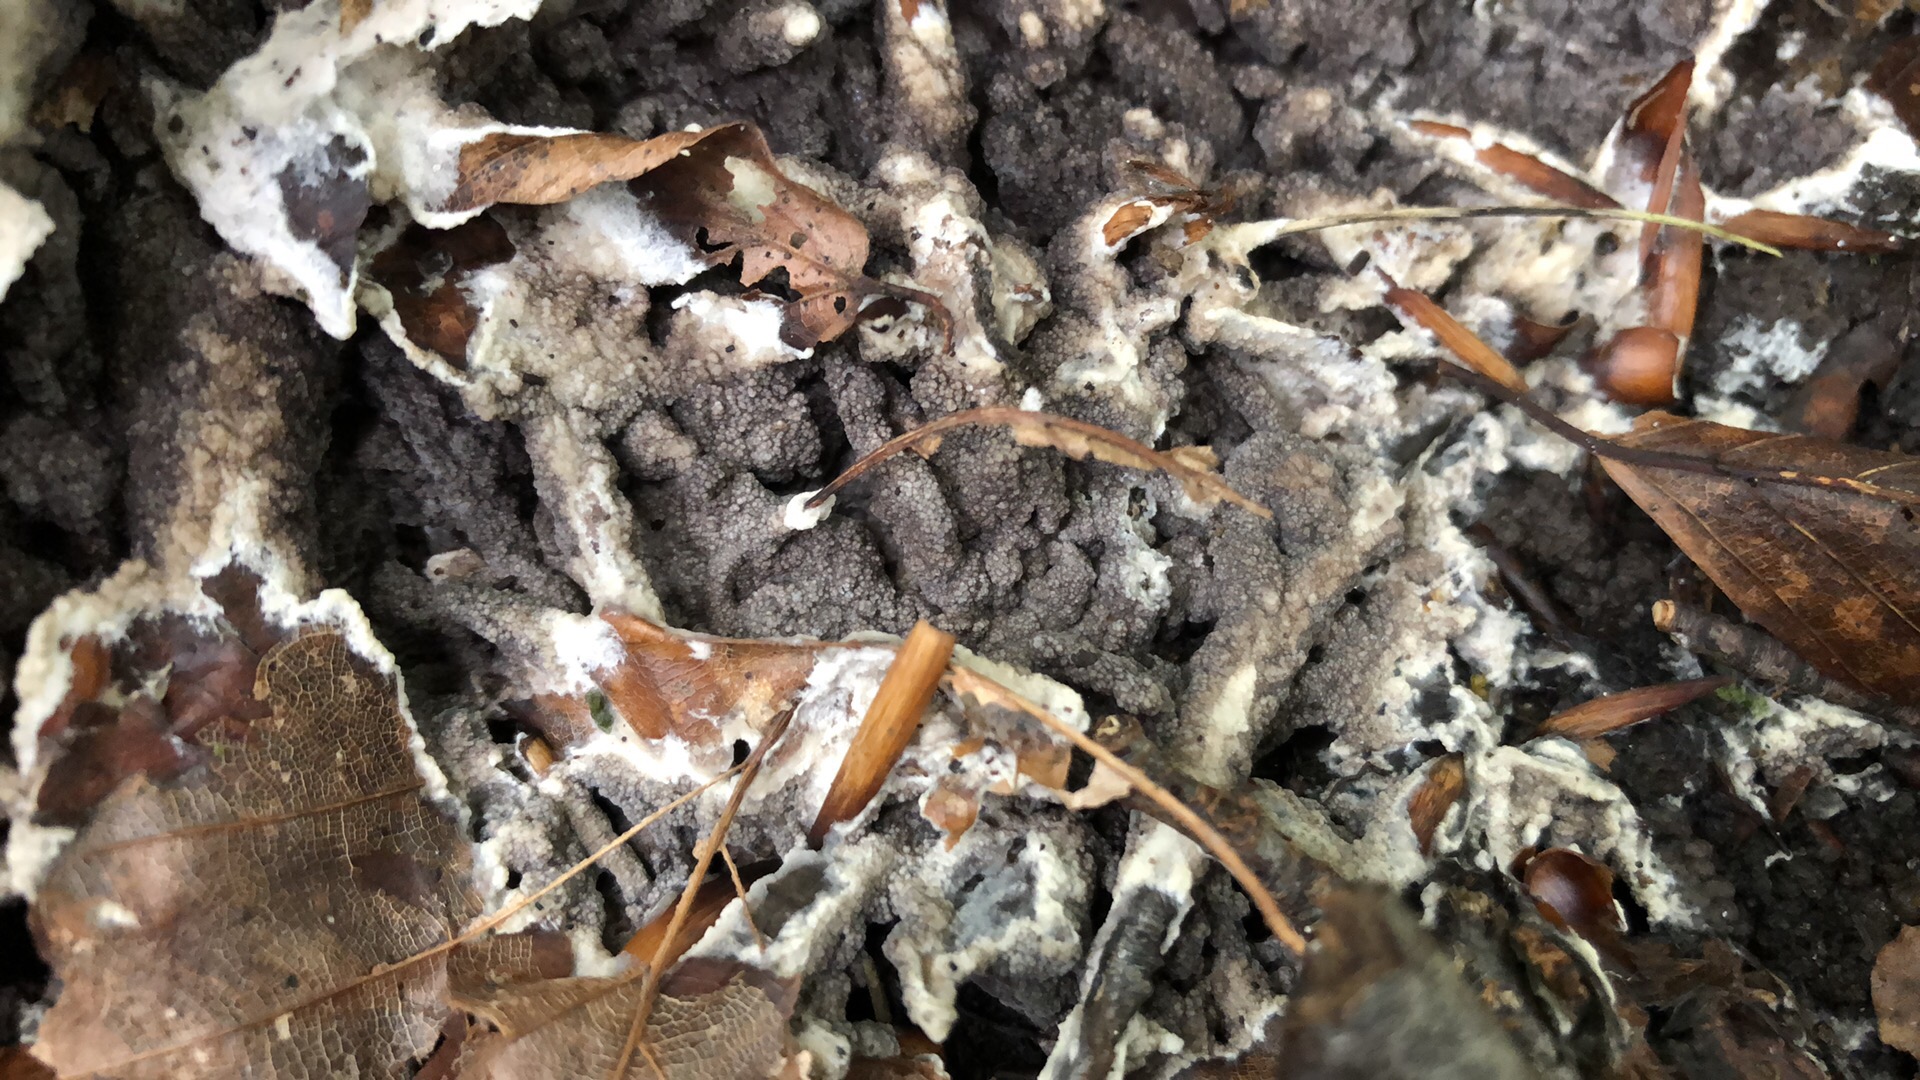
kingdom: Fungi
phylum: Basidiomycota
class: Agaricomycetes
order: Thelephorales
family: Thelephoraceae
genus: Pseudotomentella
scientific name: Pseudotomentella
